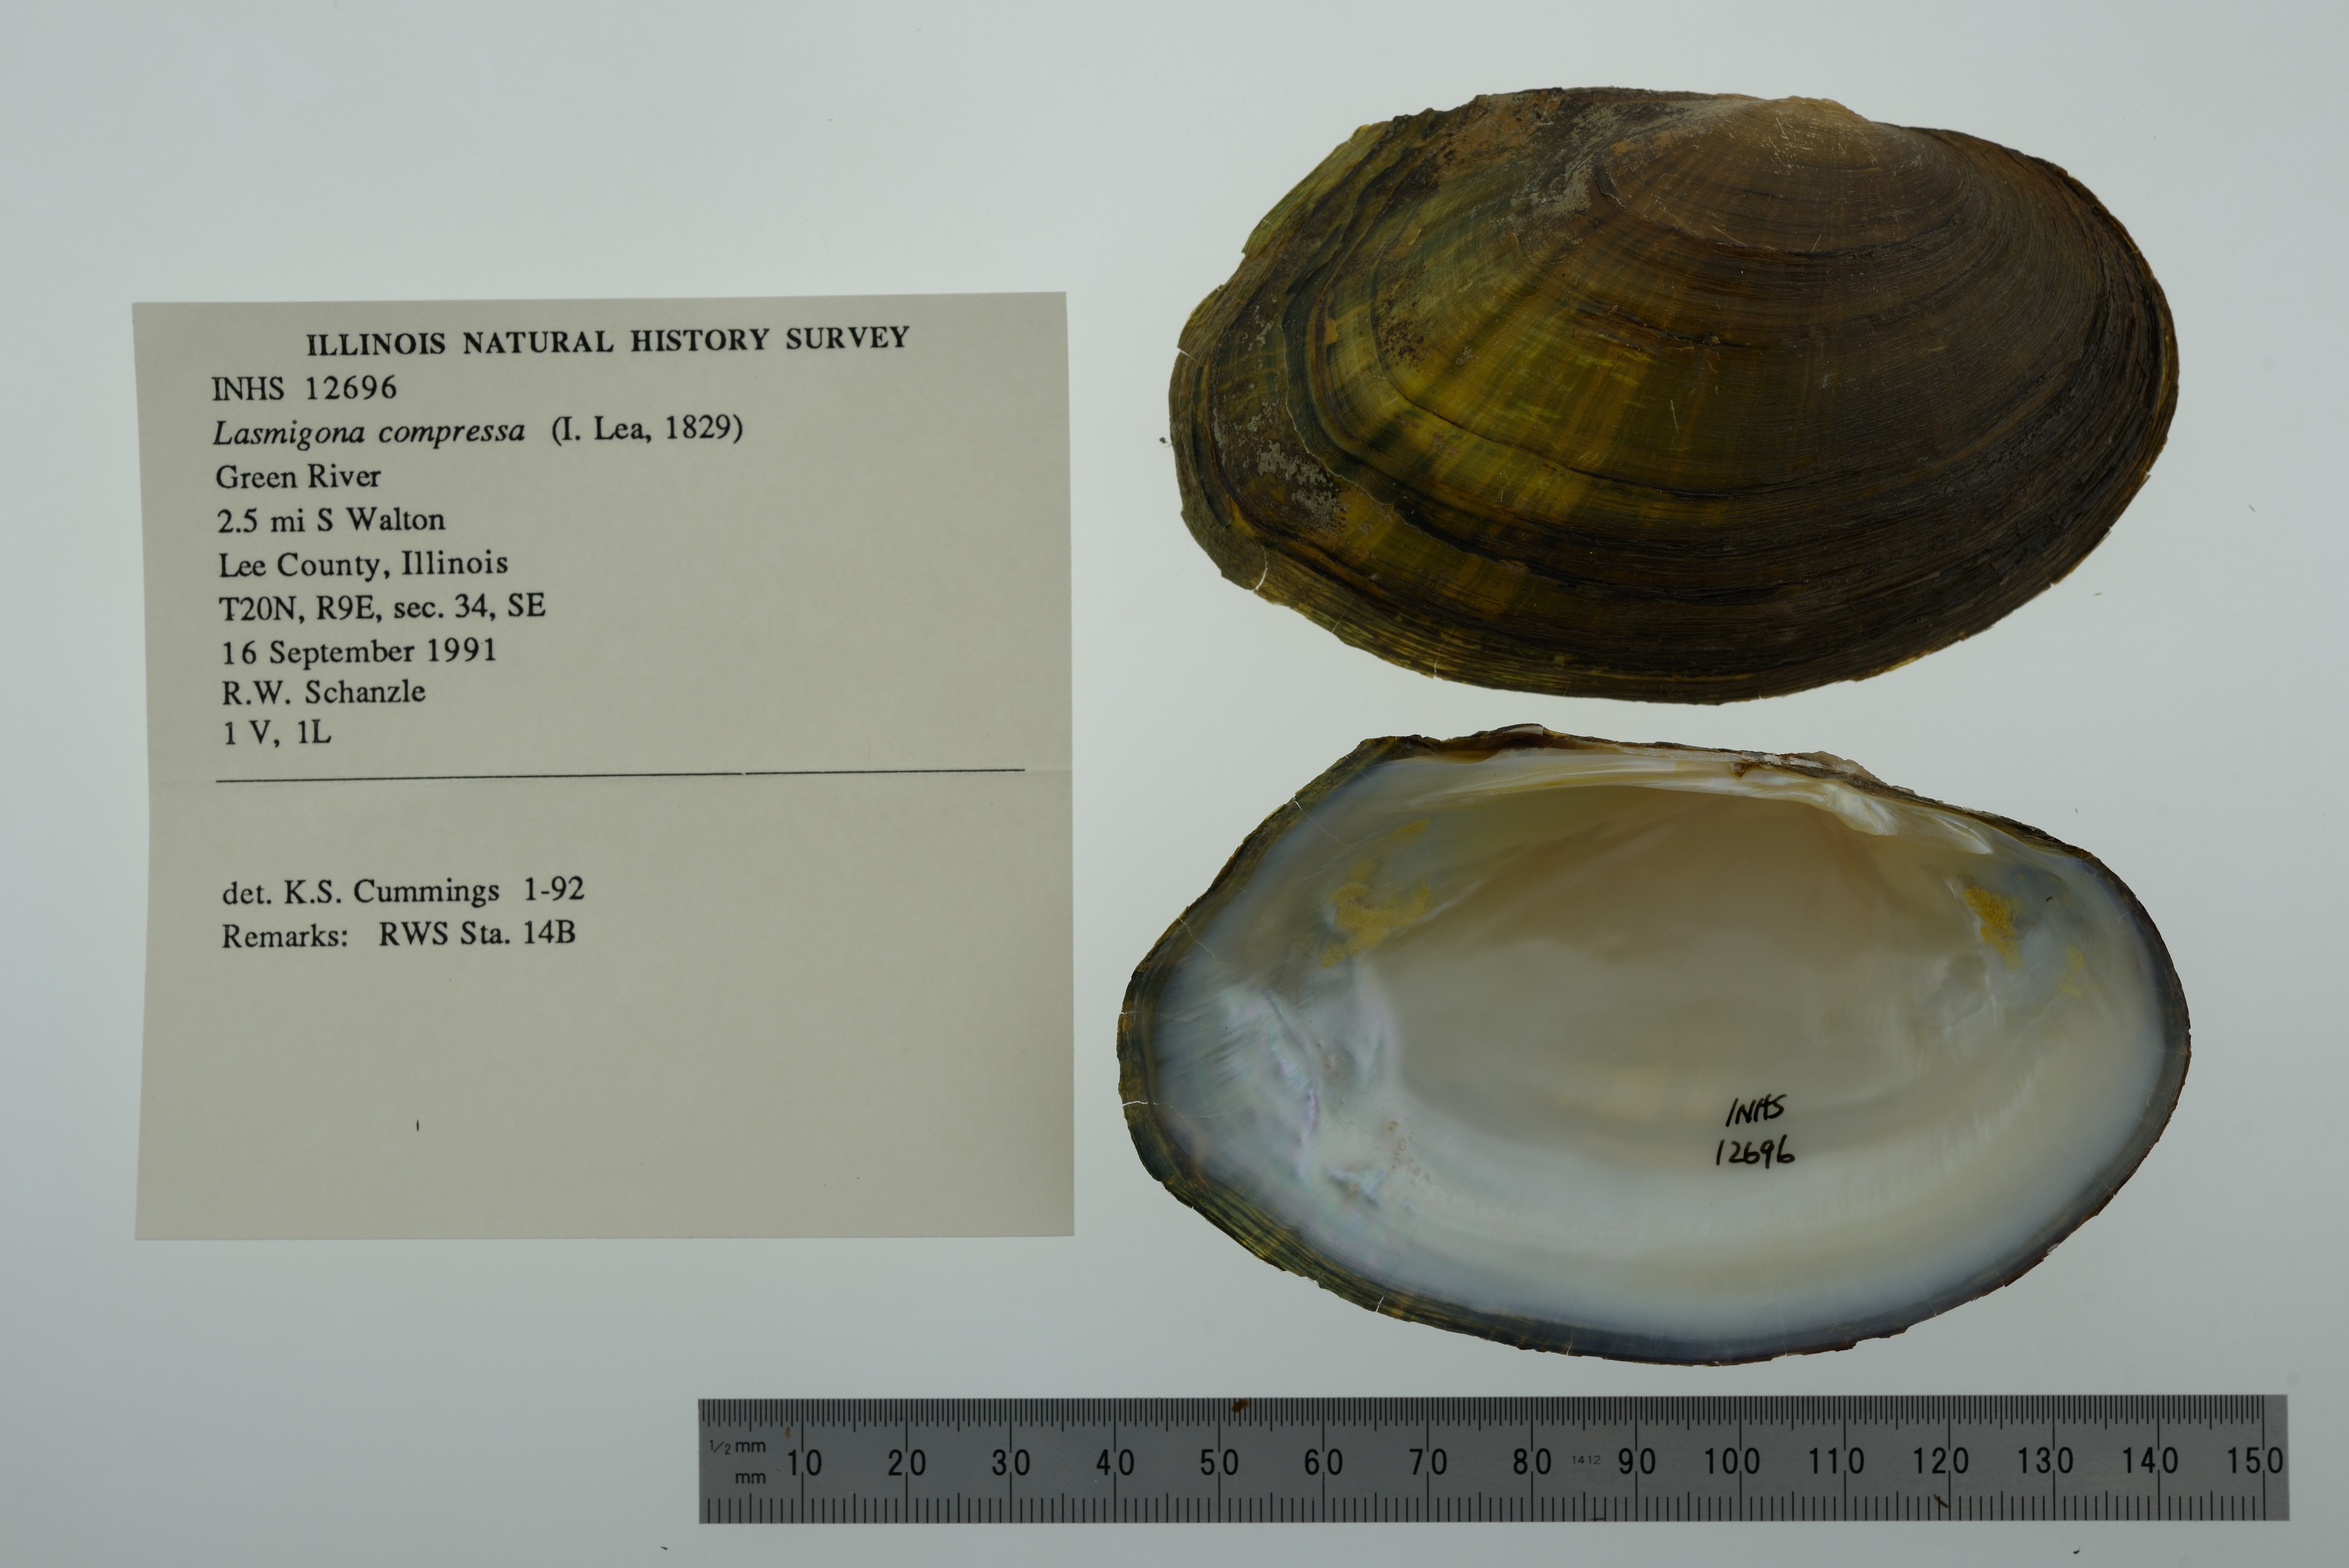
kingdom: Animalia
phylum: Mollusca
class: Bivalvia
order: Unionida
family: Unionidae
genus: Lasmigona
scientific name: Lasmigona compressa
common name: Creek heelsplitter
